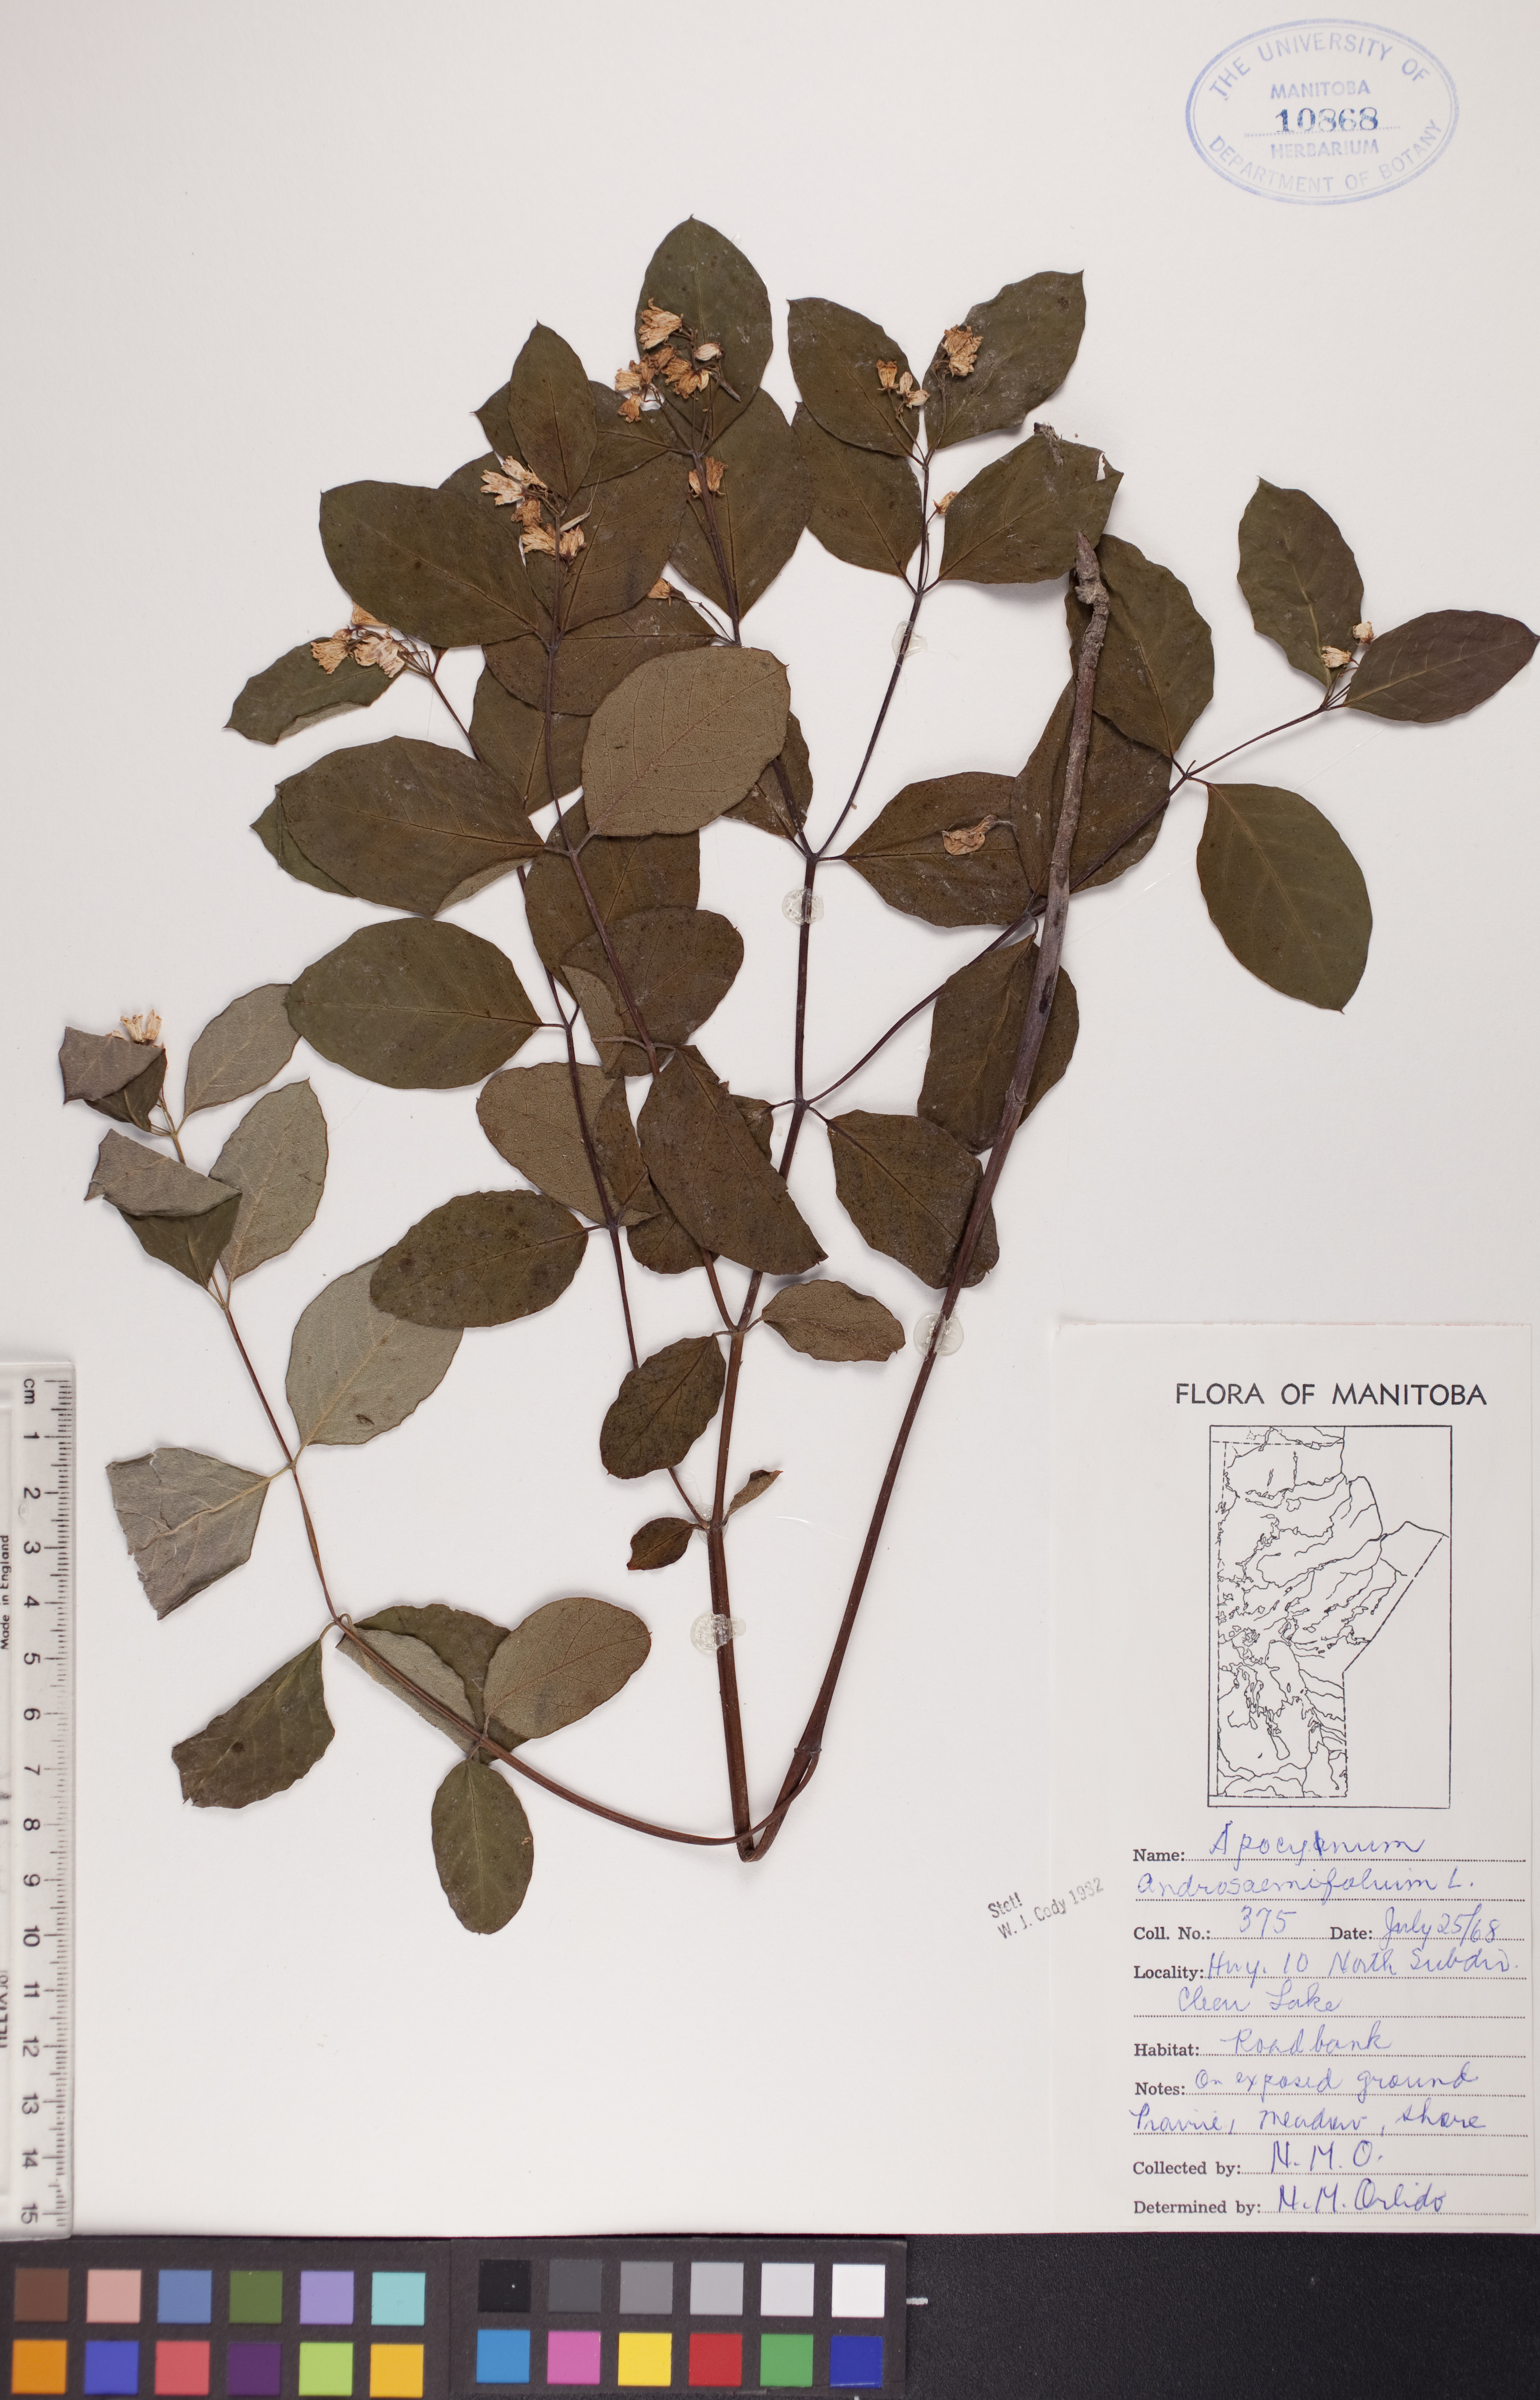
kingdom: Plantae
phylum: Tracheophyta
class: Magnoliopsida
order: Gentianales
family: Apocynaceae
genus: Apocynum
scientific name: Apocynum androsaemifolium
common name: Spreading dogbane
